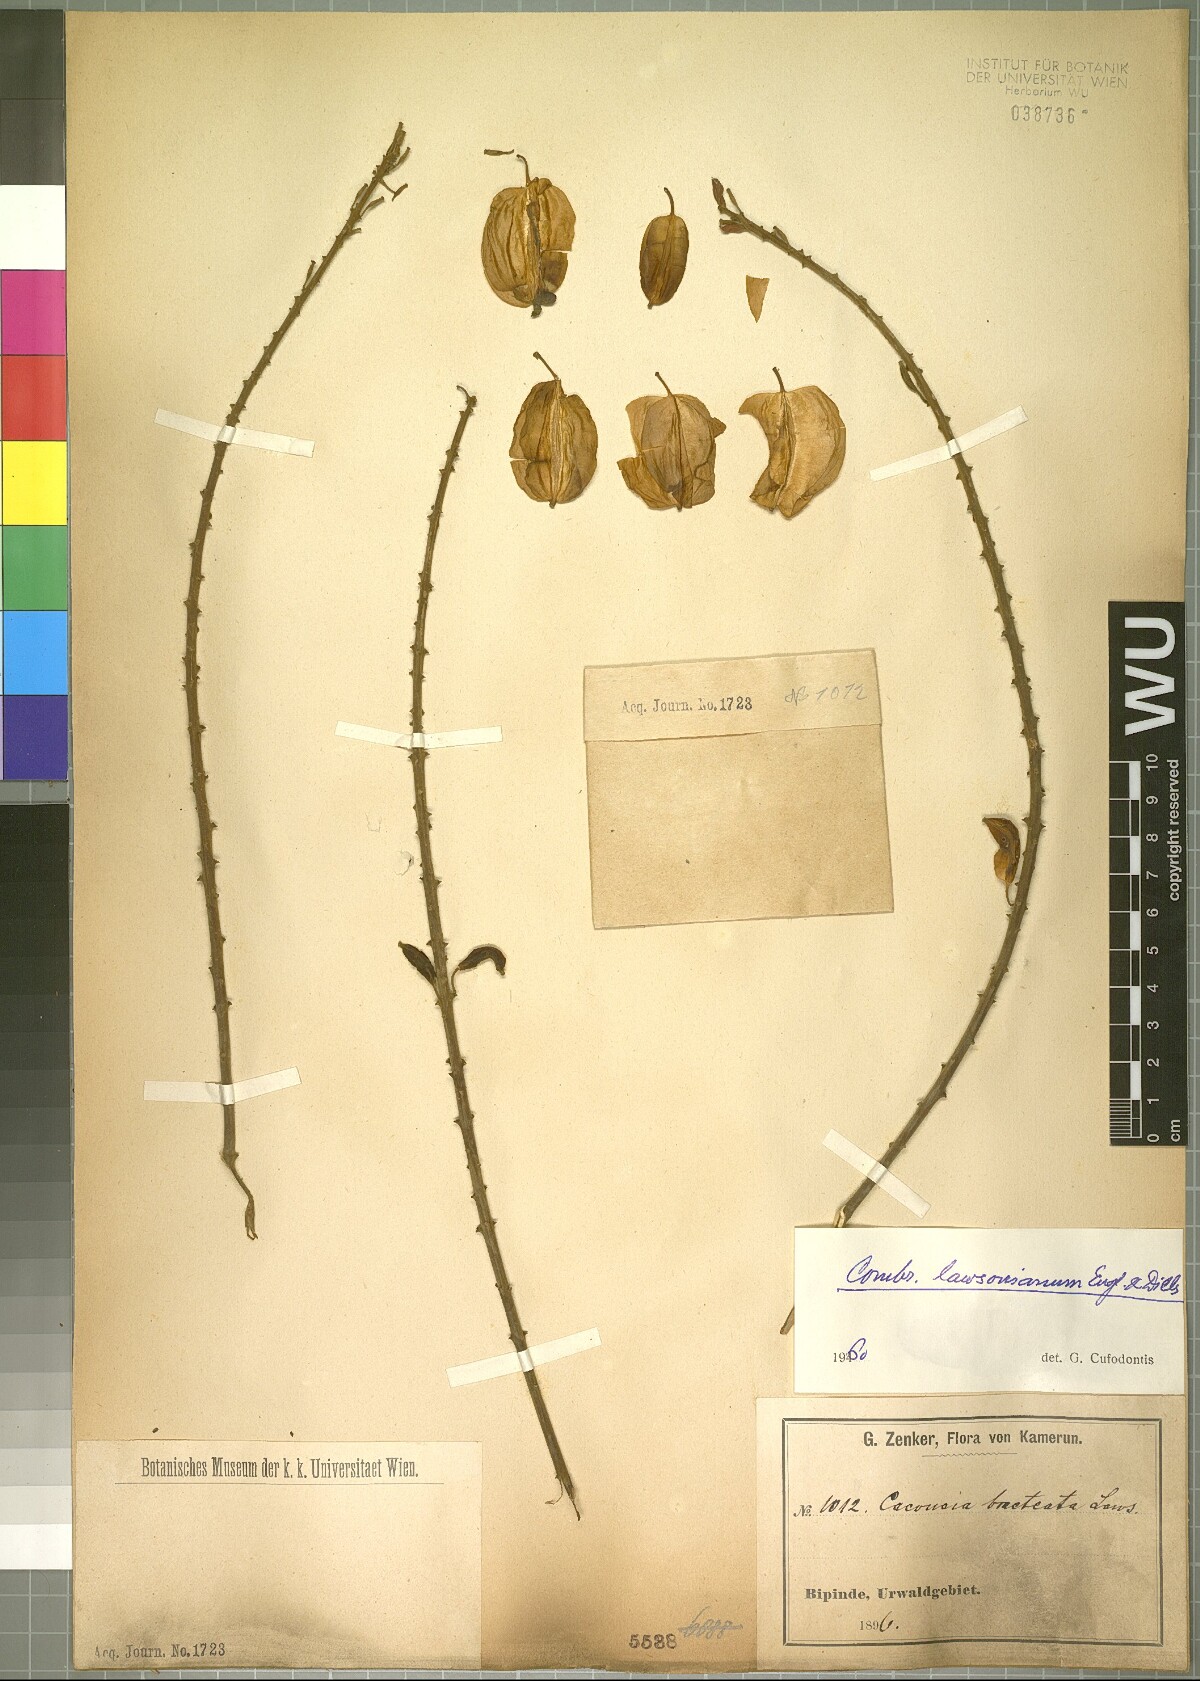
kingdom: Plantae
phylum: Tracheophyta
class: Magnoliopsida
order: Myrtales
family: Combretaceae
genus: Combretum
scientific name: Combretum platypterum
